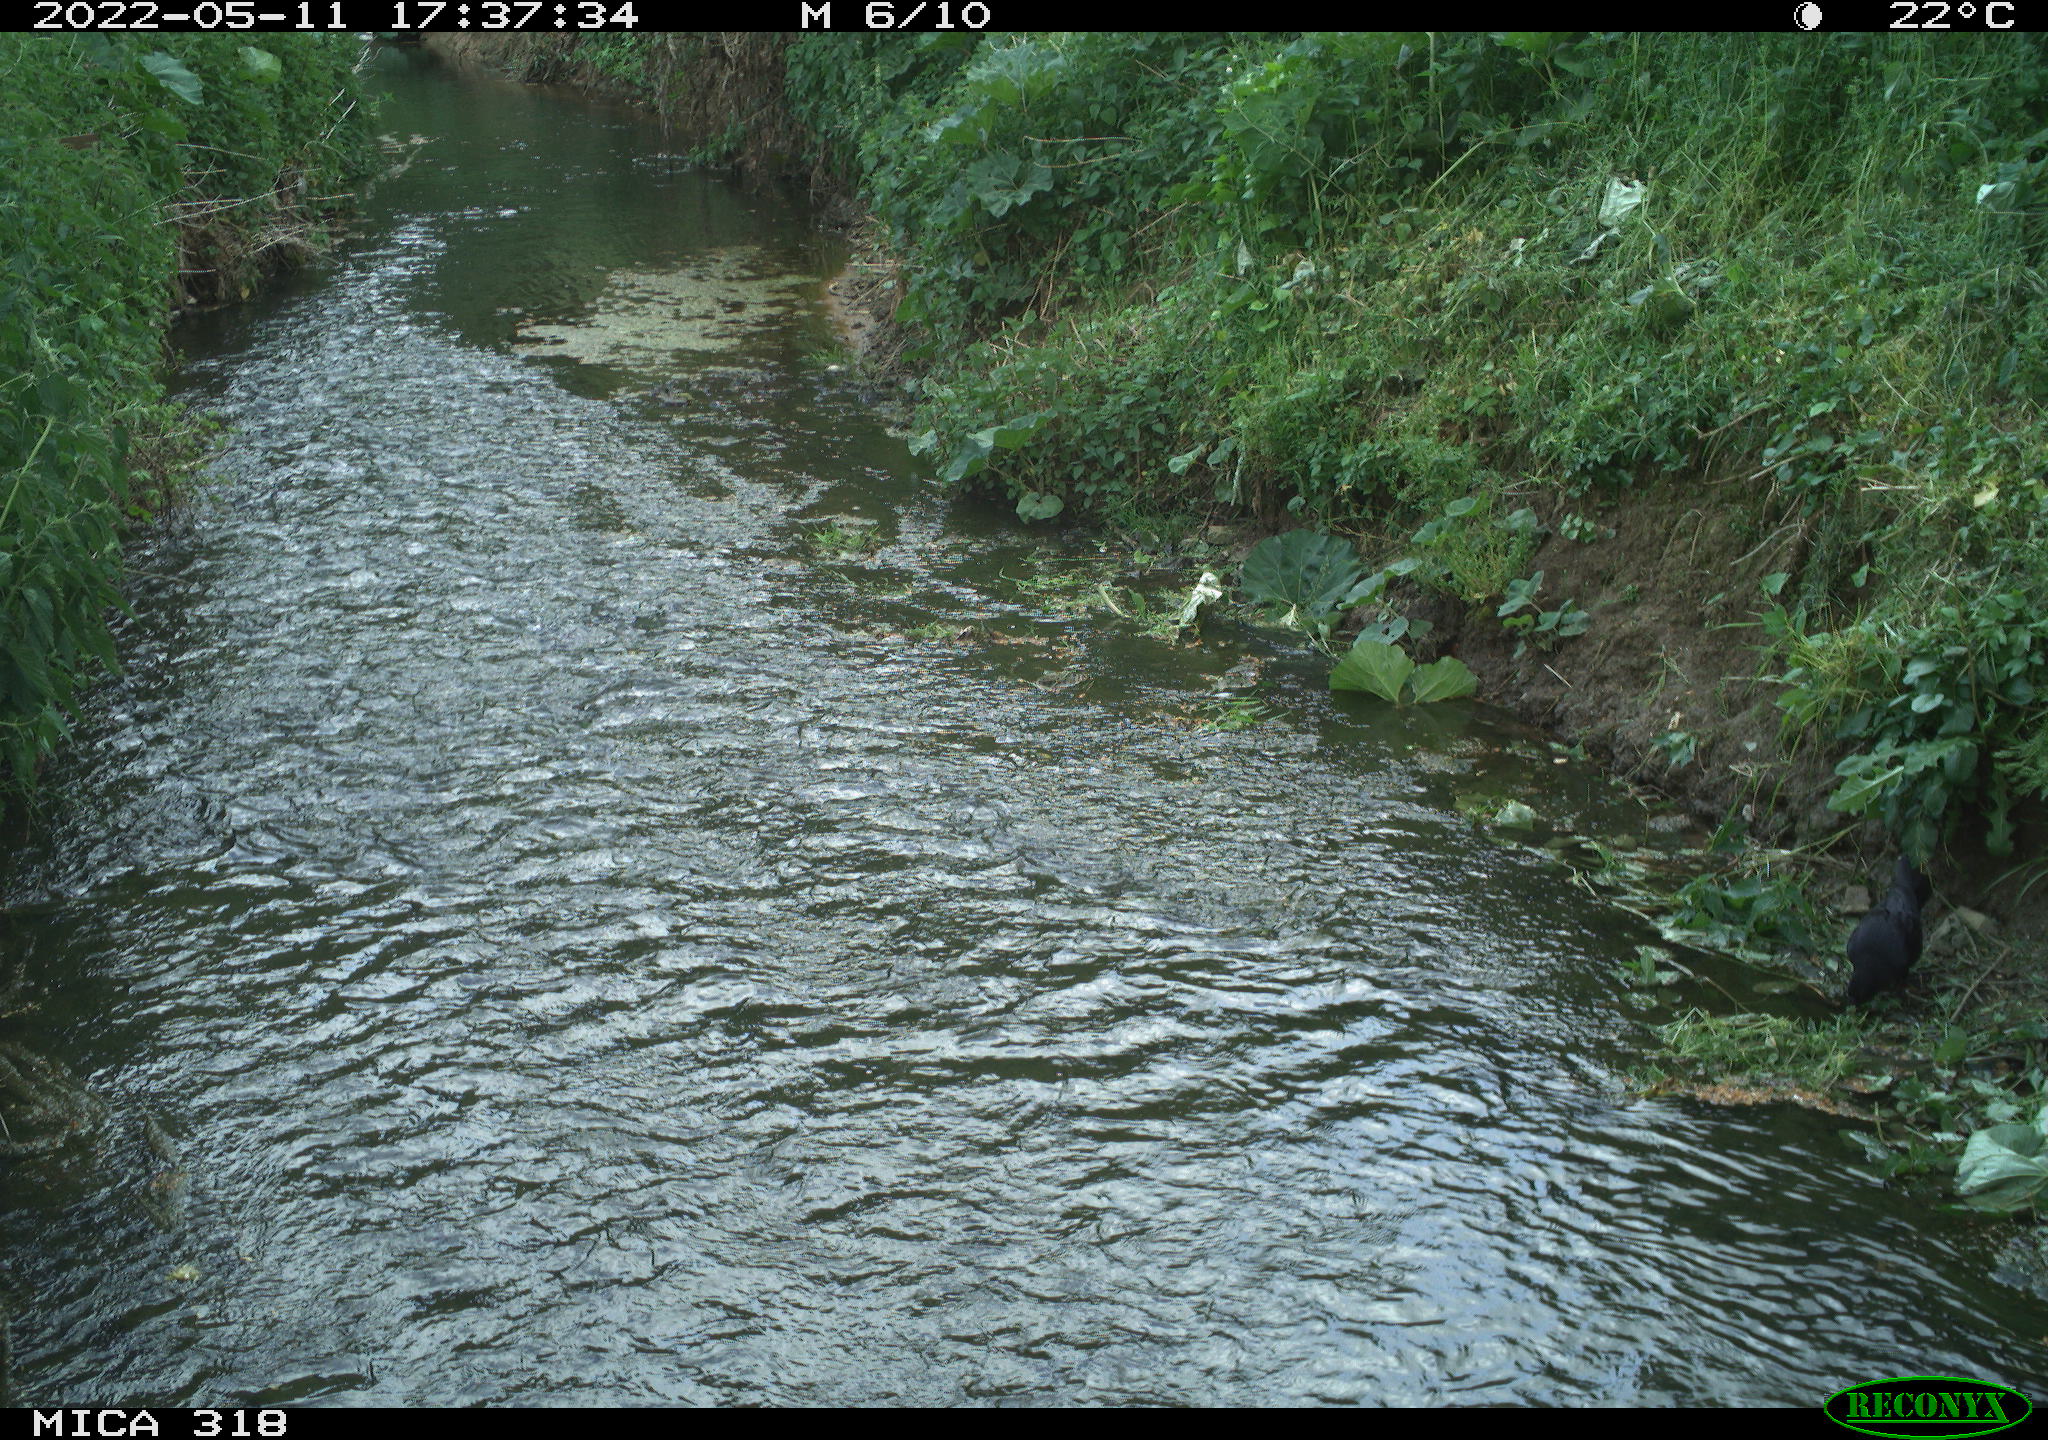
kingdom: Animalia
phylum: Chordata
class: Aves
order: Passeriformes
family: Corvidae
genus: Corvus
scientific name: Corvus corone
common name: Carrion crow
